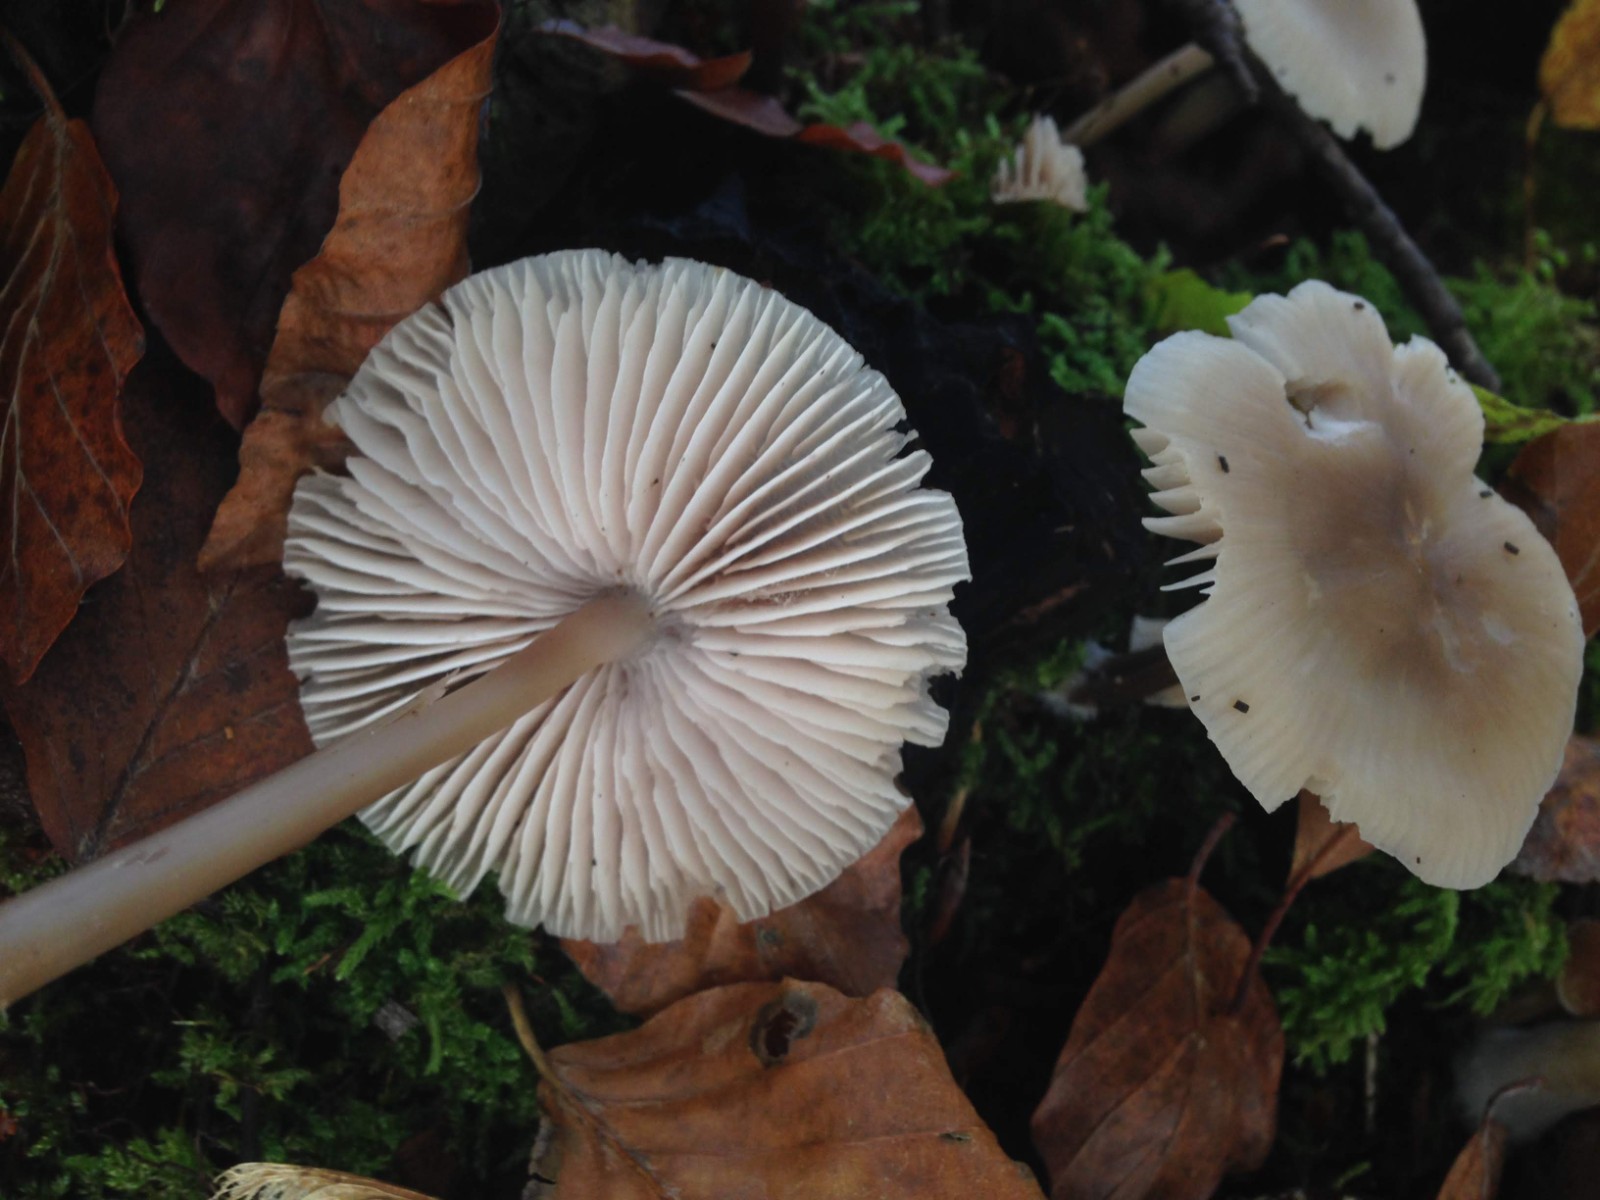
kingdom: Fungi
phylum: Basidiomycota
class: Agaricomycetes
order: Agaricales
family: Mycenaceae
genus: Mycena
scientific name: Mycena galericulata
